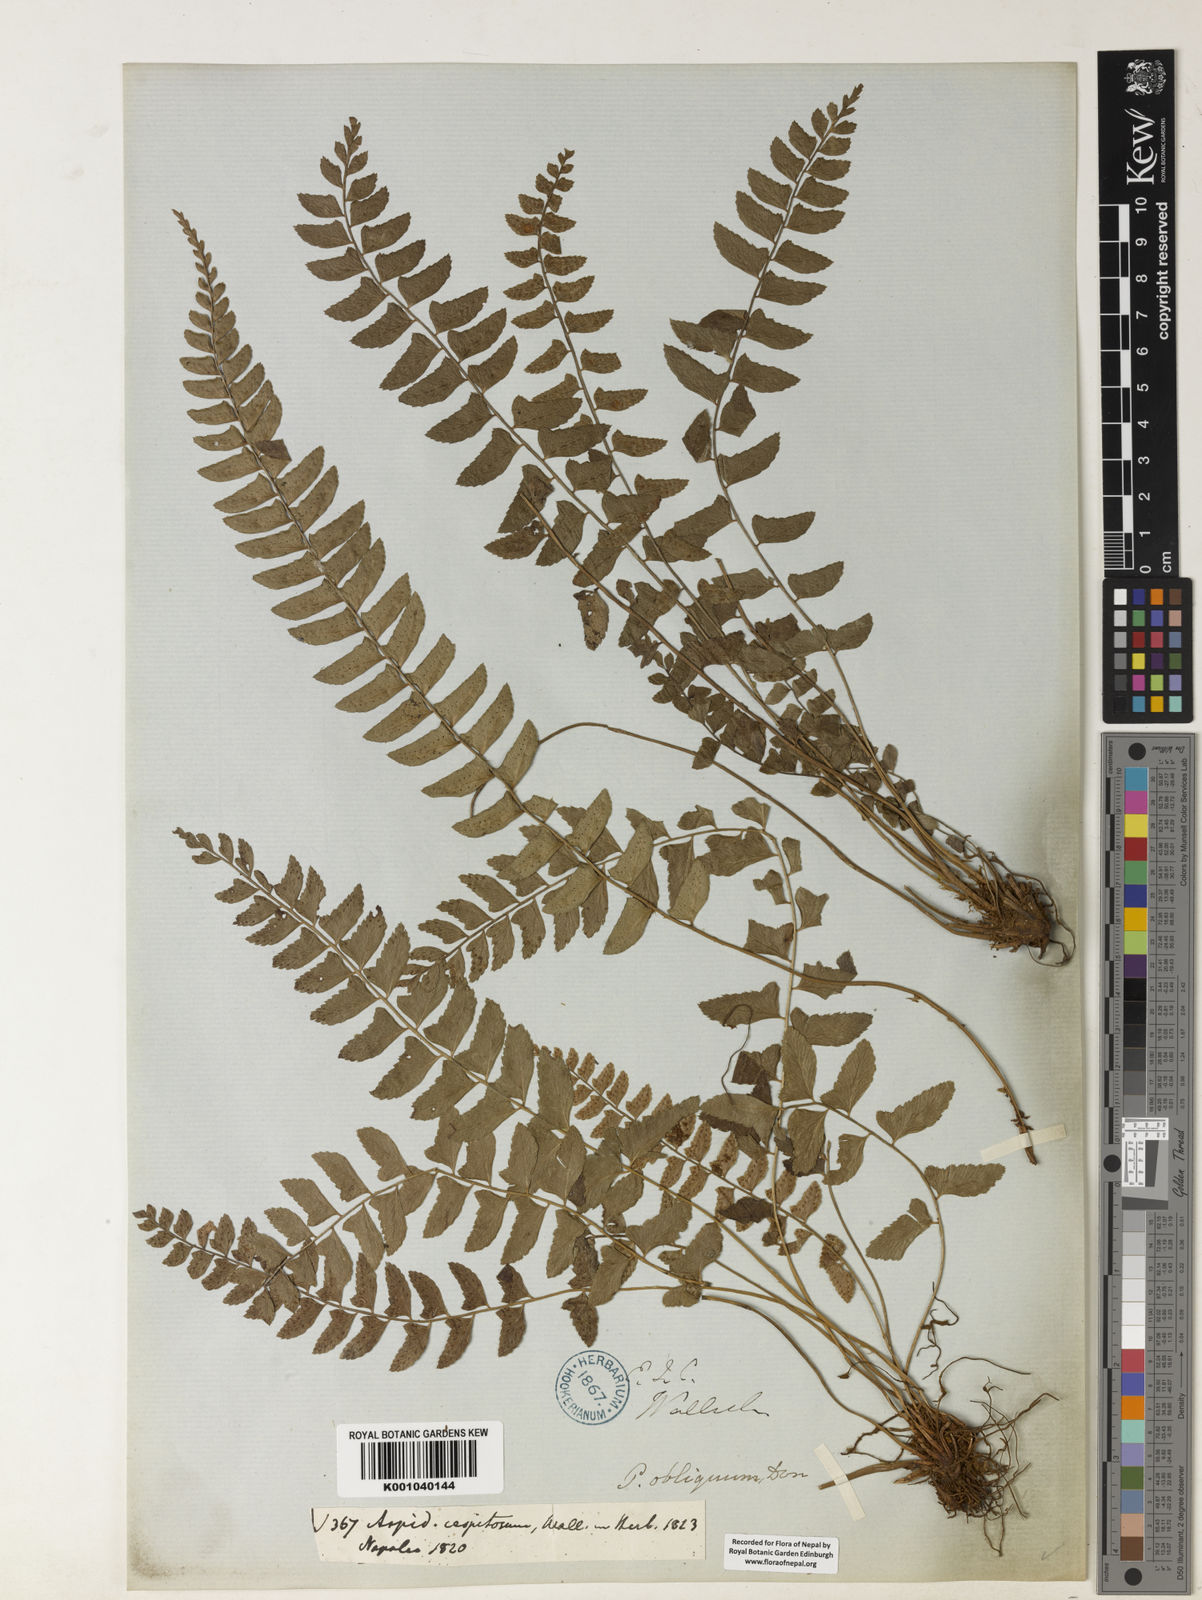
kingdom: Plantae
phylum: Tracheophyta
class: Polypodiopsida
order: Polypodiales
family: Dryopteridaceae
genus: Polystichum
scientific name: Polystichum obliquum
